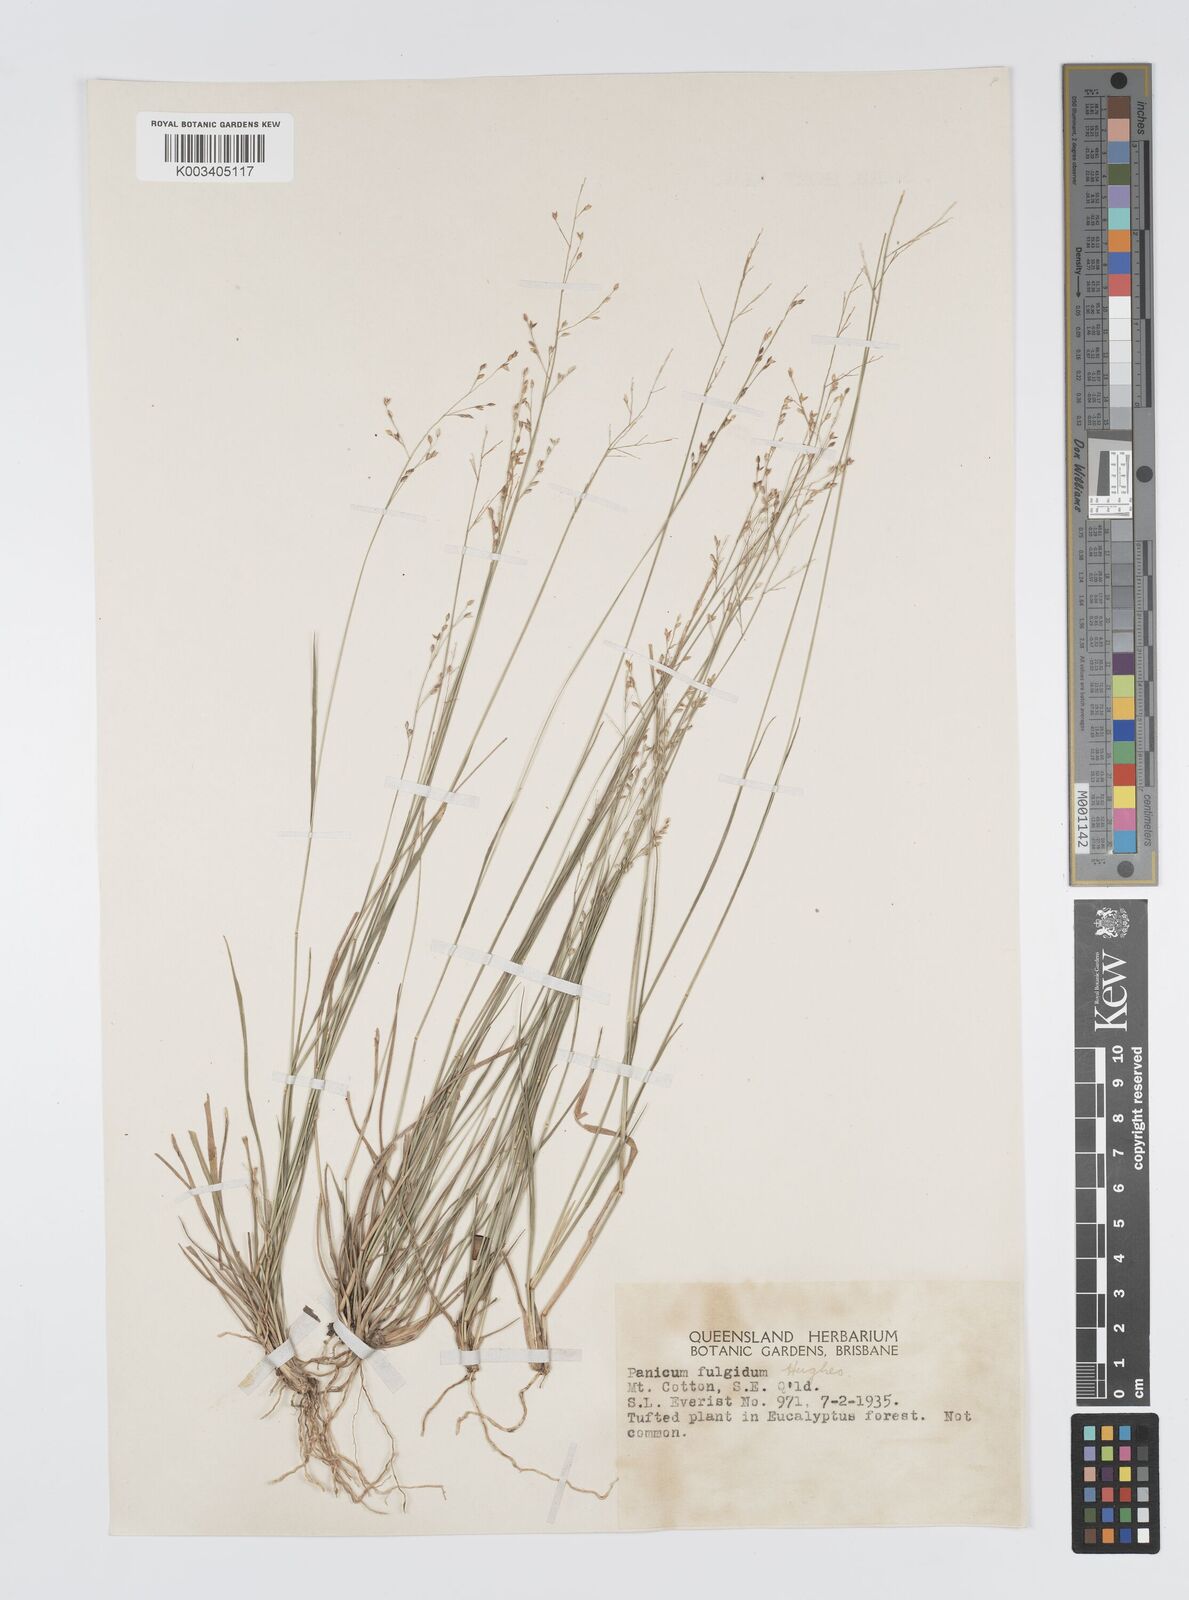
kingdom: Plantae
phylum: Tracheophyta
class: Liliopsida
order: Poales
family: Poaceae
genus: Panicum
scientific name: Panicum simile
